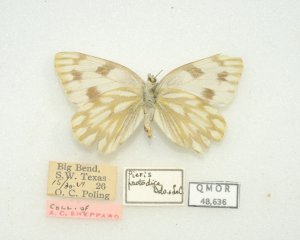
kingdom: Animalia
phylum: Arthropoda
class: Insecta
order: Lepidoptera
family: Pieridae
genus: Pontia
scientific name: Pontia protodice
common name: Checkered White
